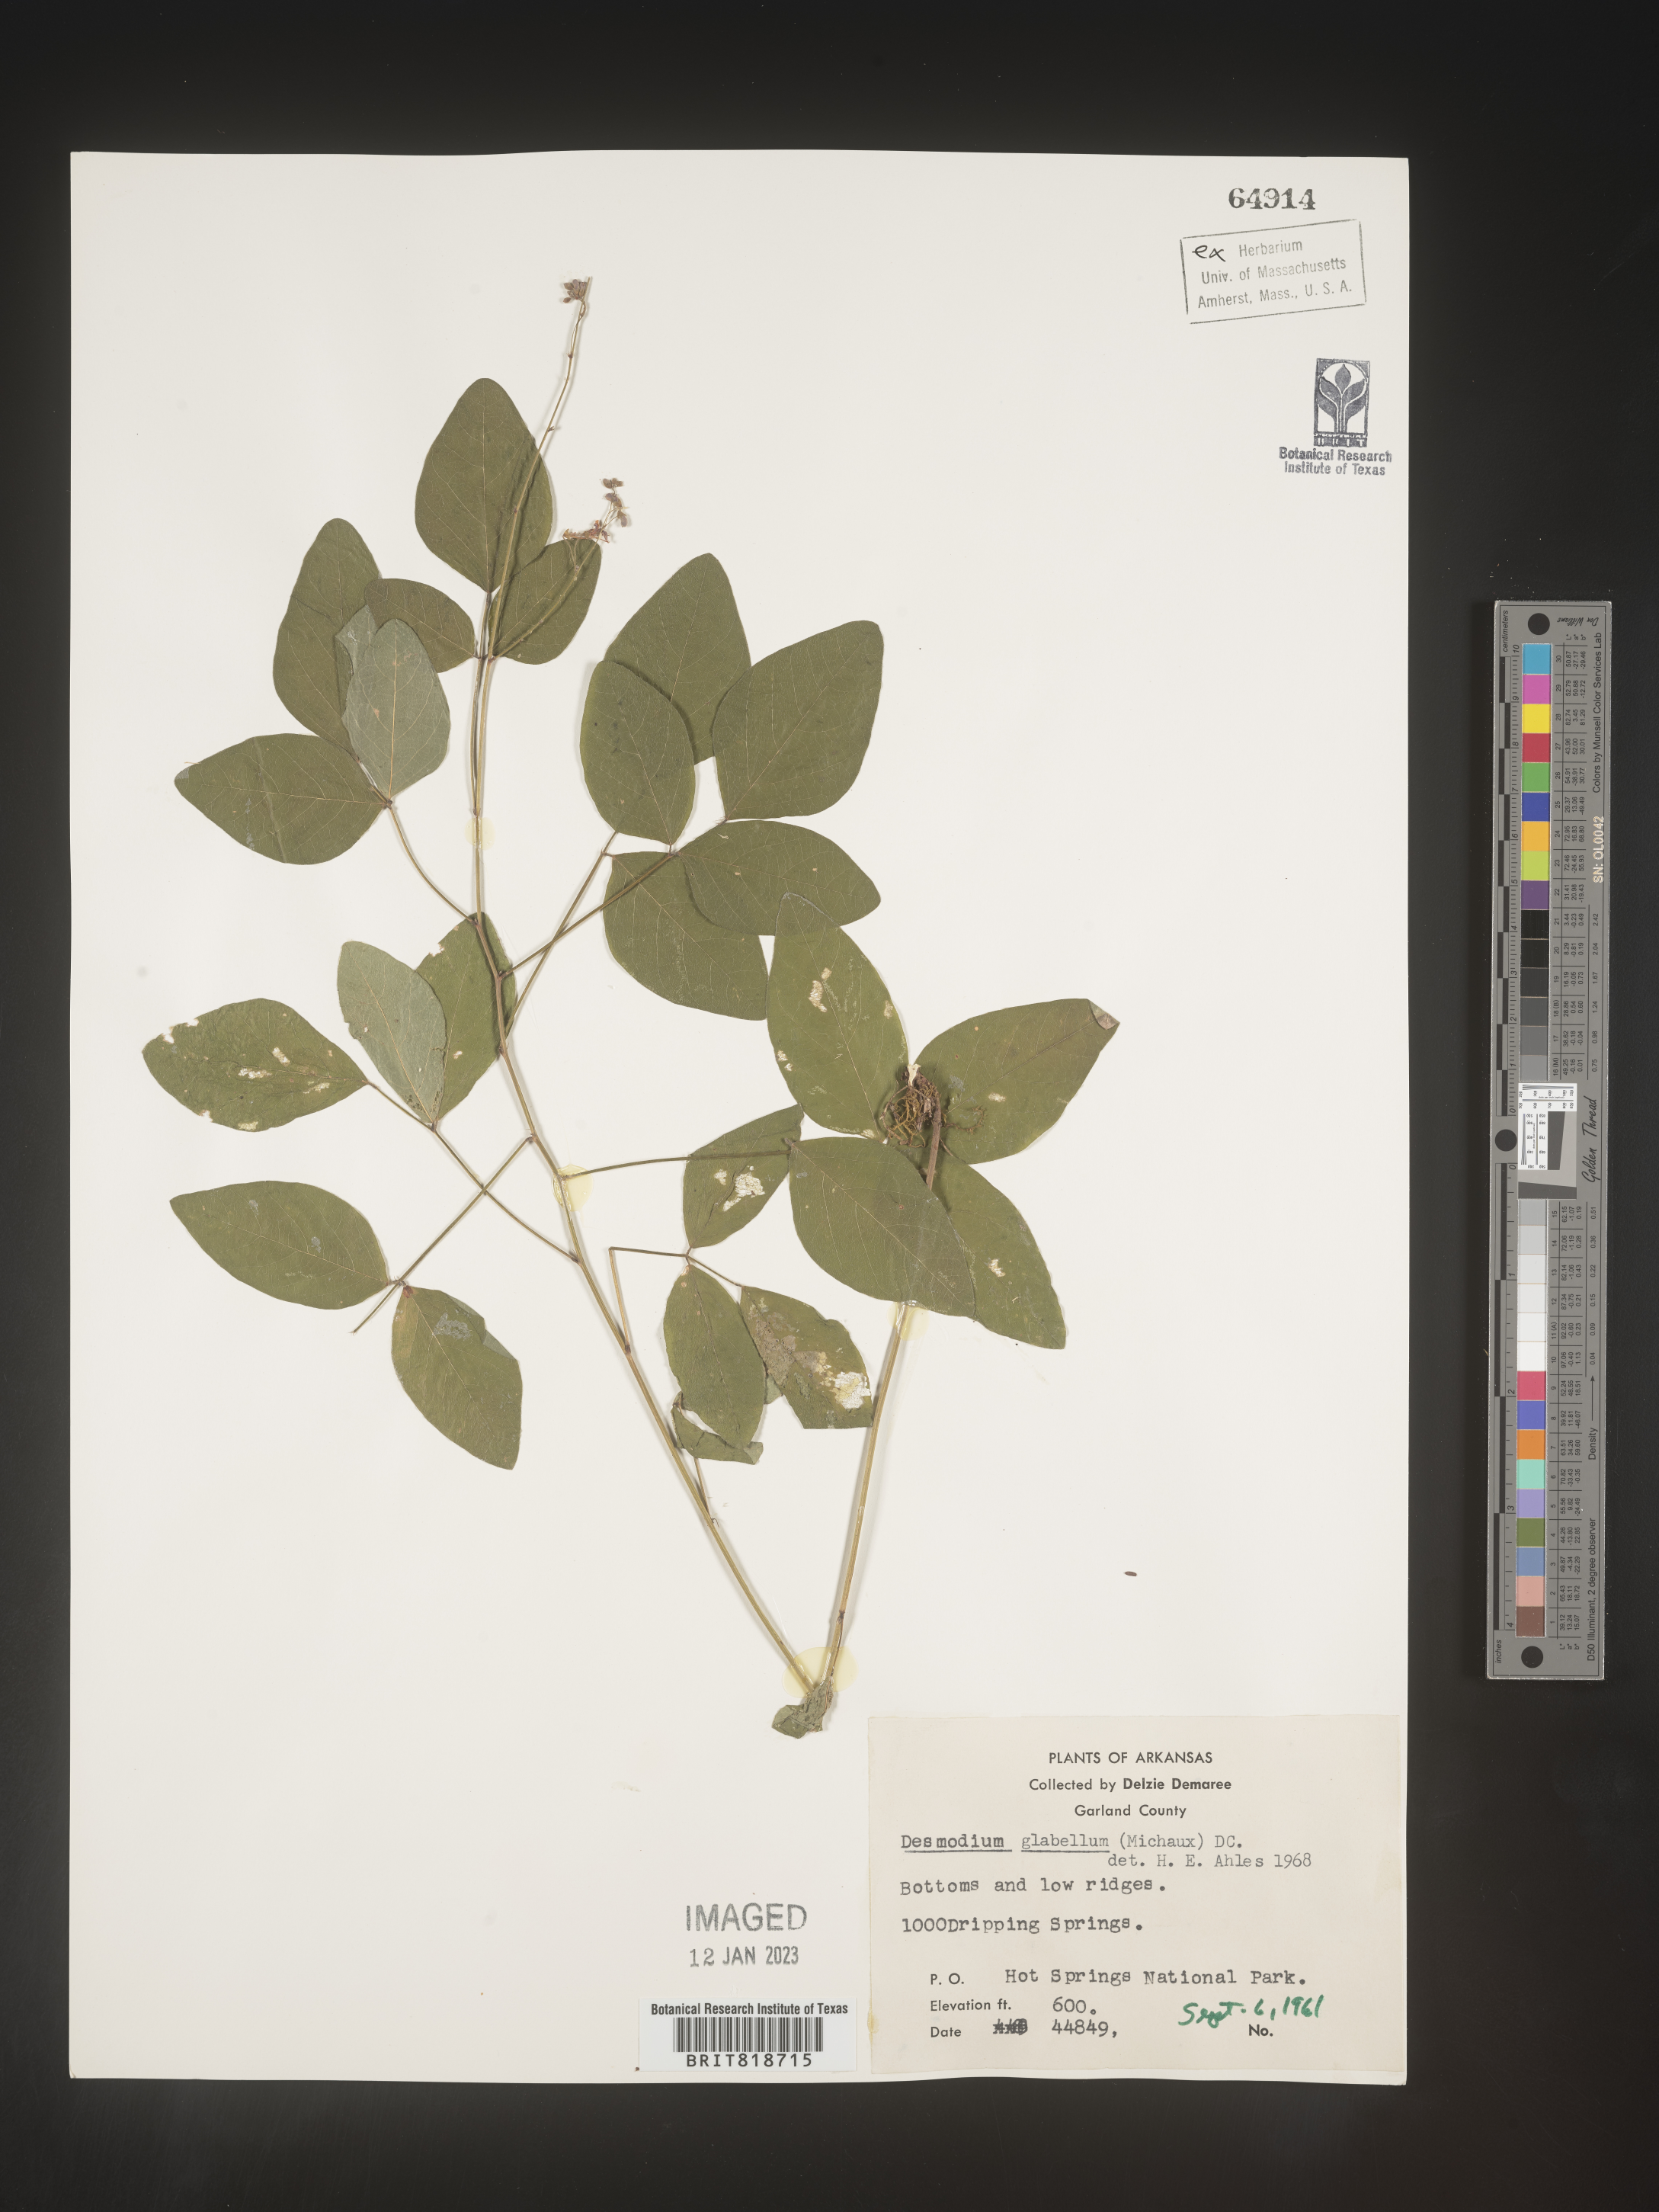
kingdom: Plantae
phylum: Tracheophyta
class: Magnoliopsida
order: Fabales
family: Fabaceae
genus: Desmodium
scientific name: Desmodium
